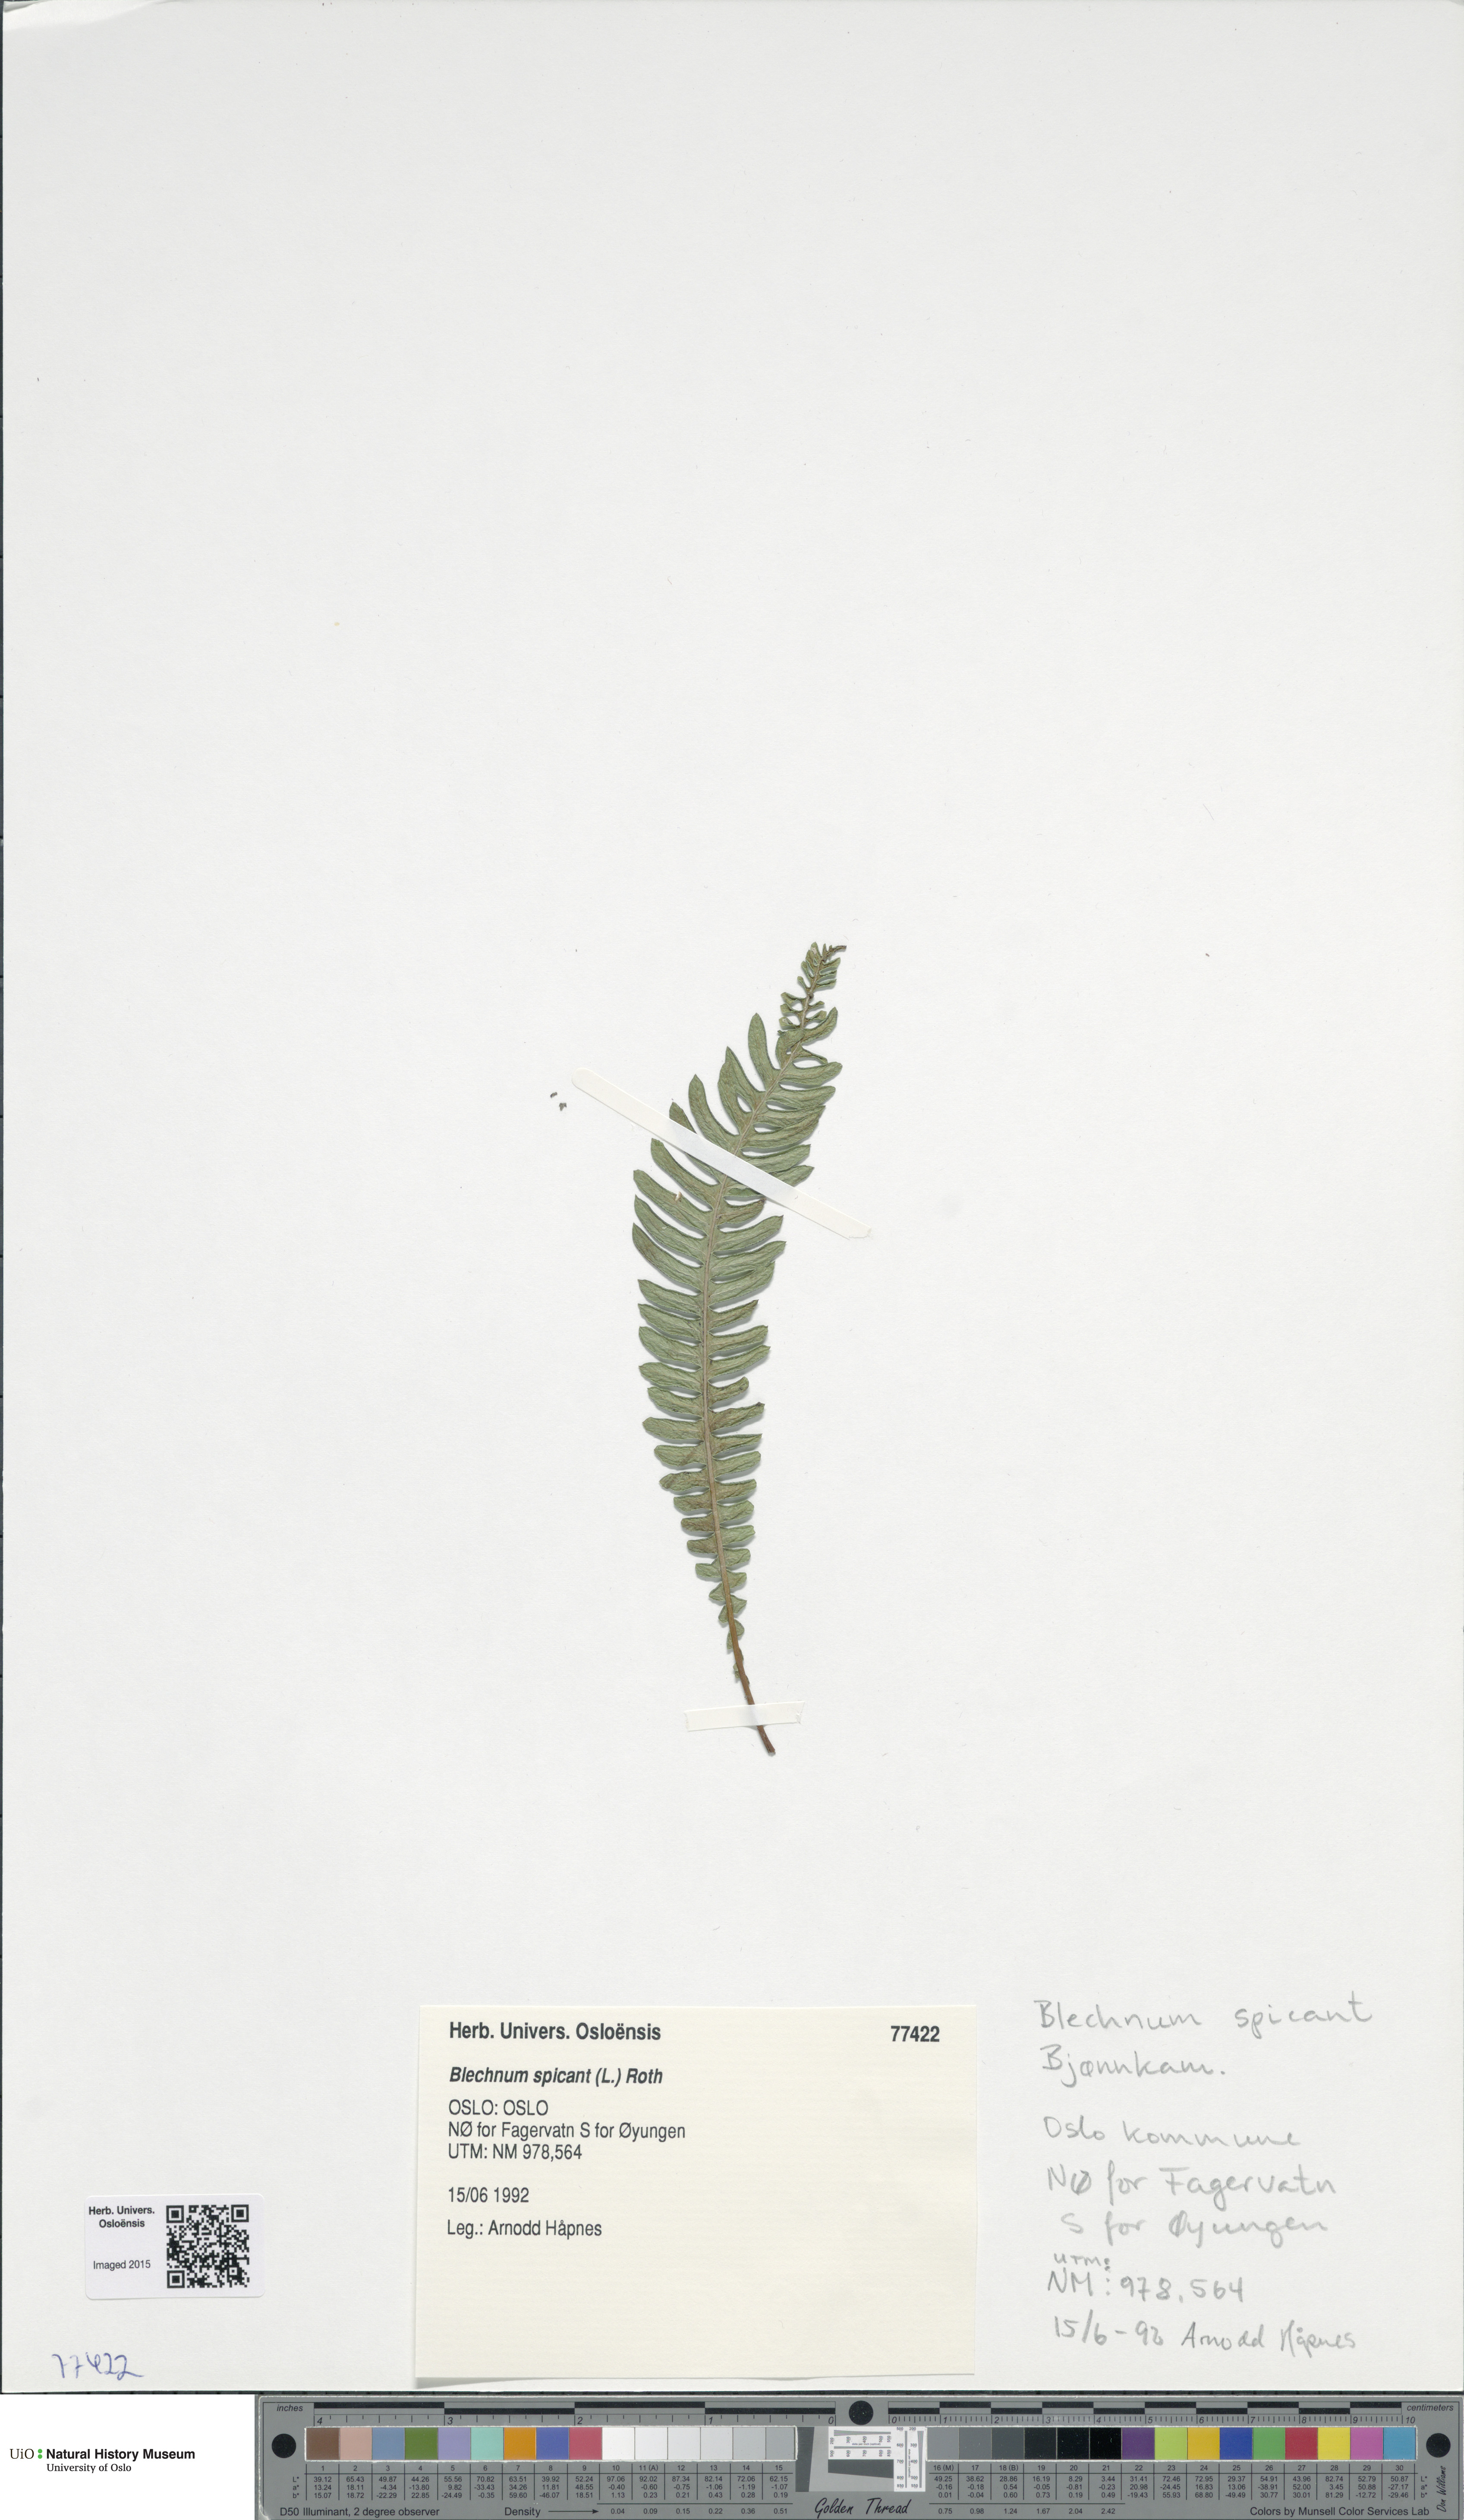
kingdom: Plantae
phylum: Tracheophyta
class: Polypodiopsida
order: Polypodiales
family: Blechnaceae
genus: Struthiopteris
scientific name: Struthiopteris spicant
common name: Deer fern
